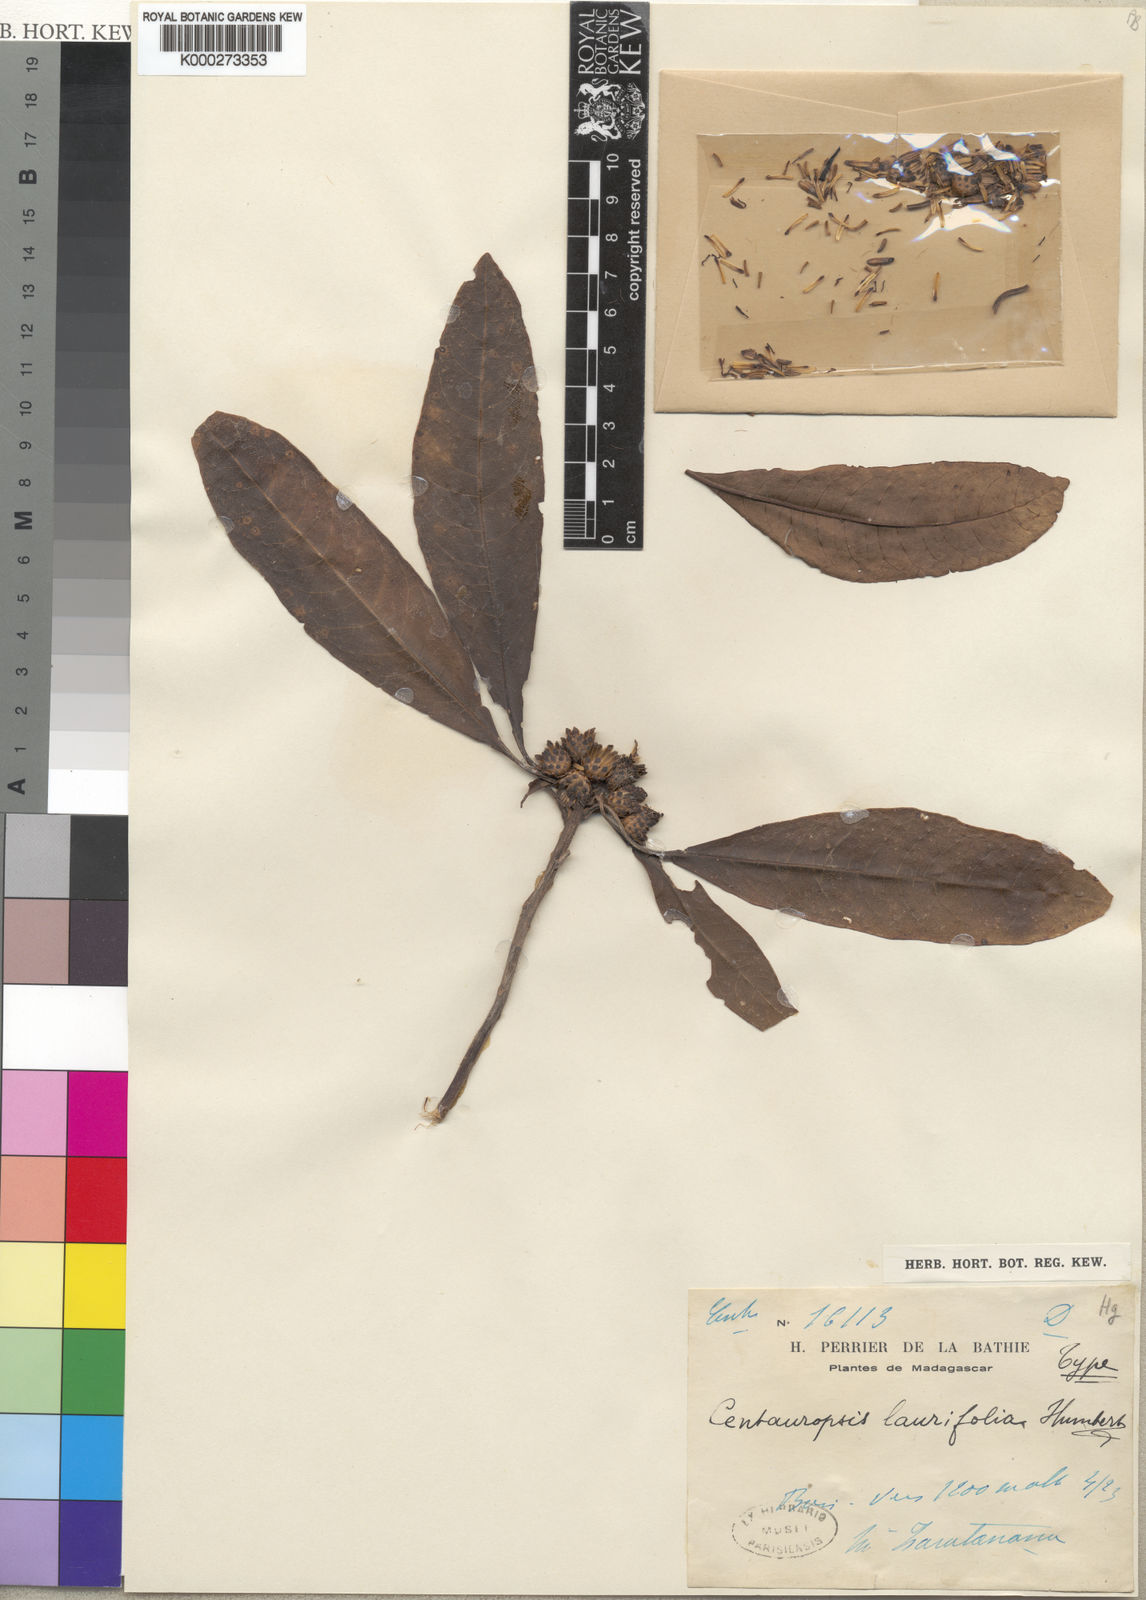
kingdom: Plantae
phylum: Tracheophyta
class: Magnoliopsida
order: Asterales
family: Asteraceae
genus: Centauropsis
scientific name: Centauropsis laurifolia
